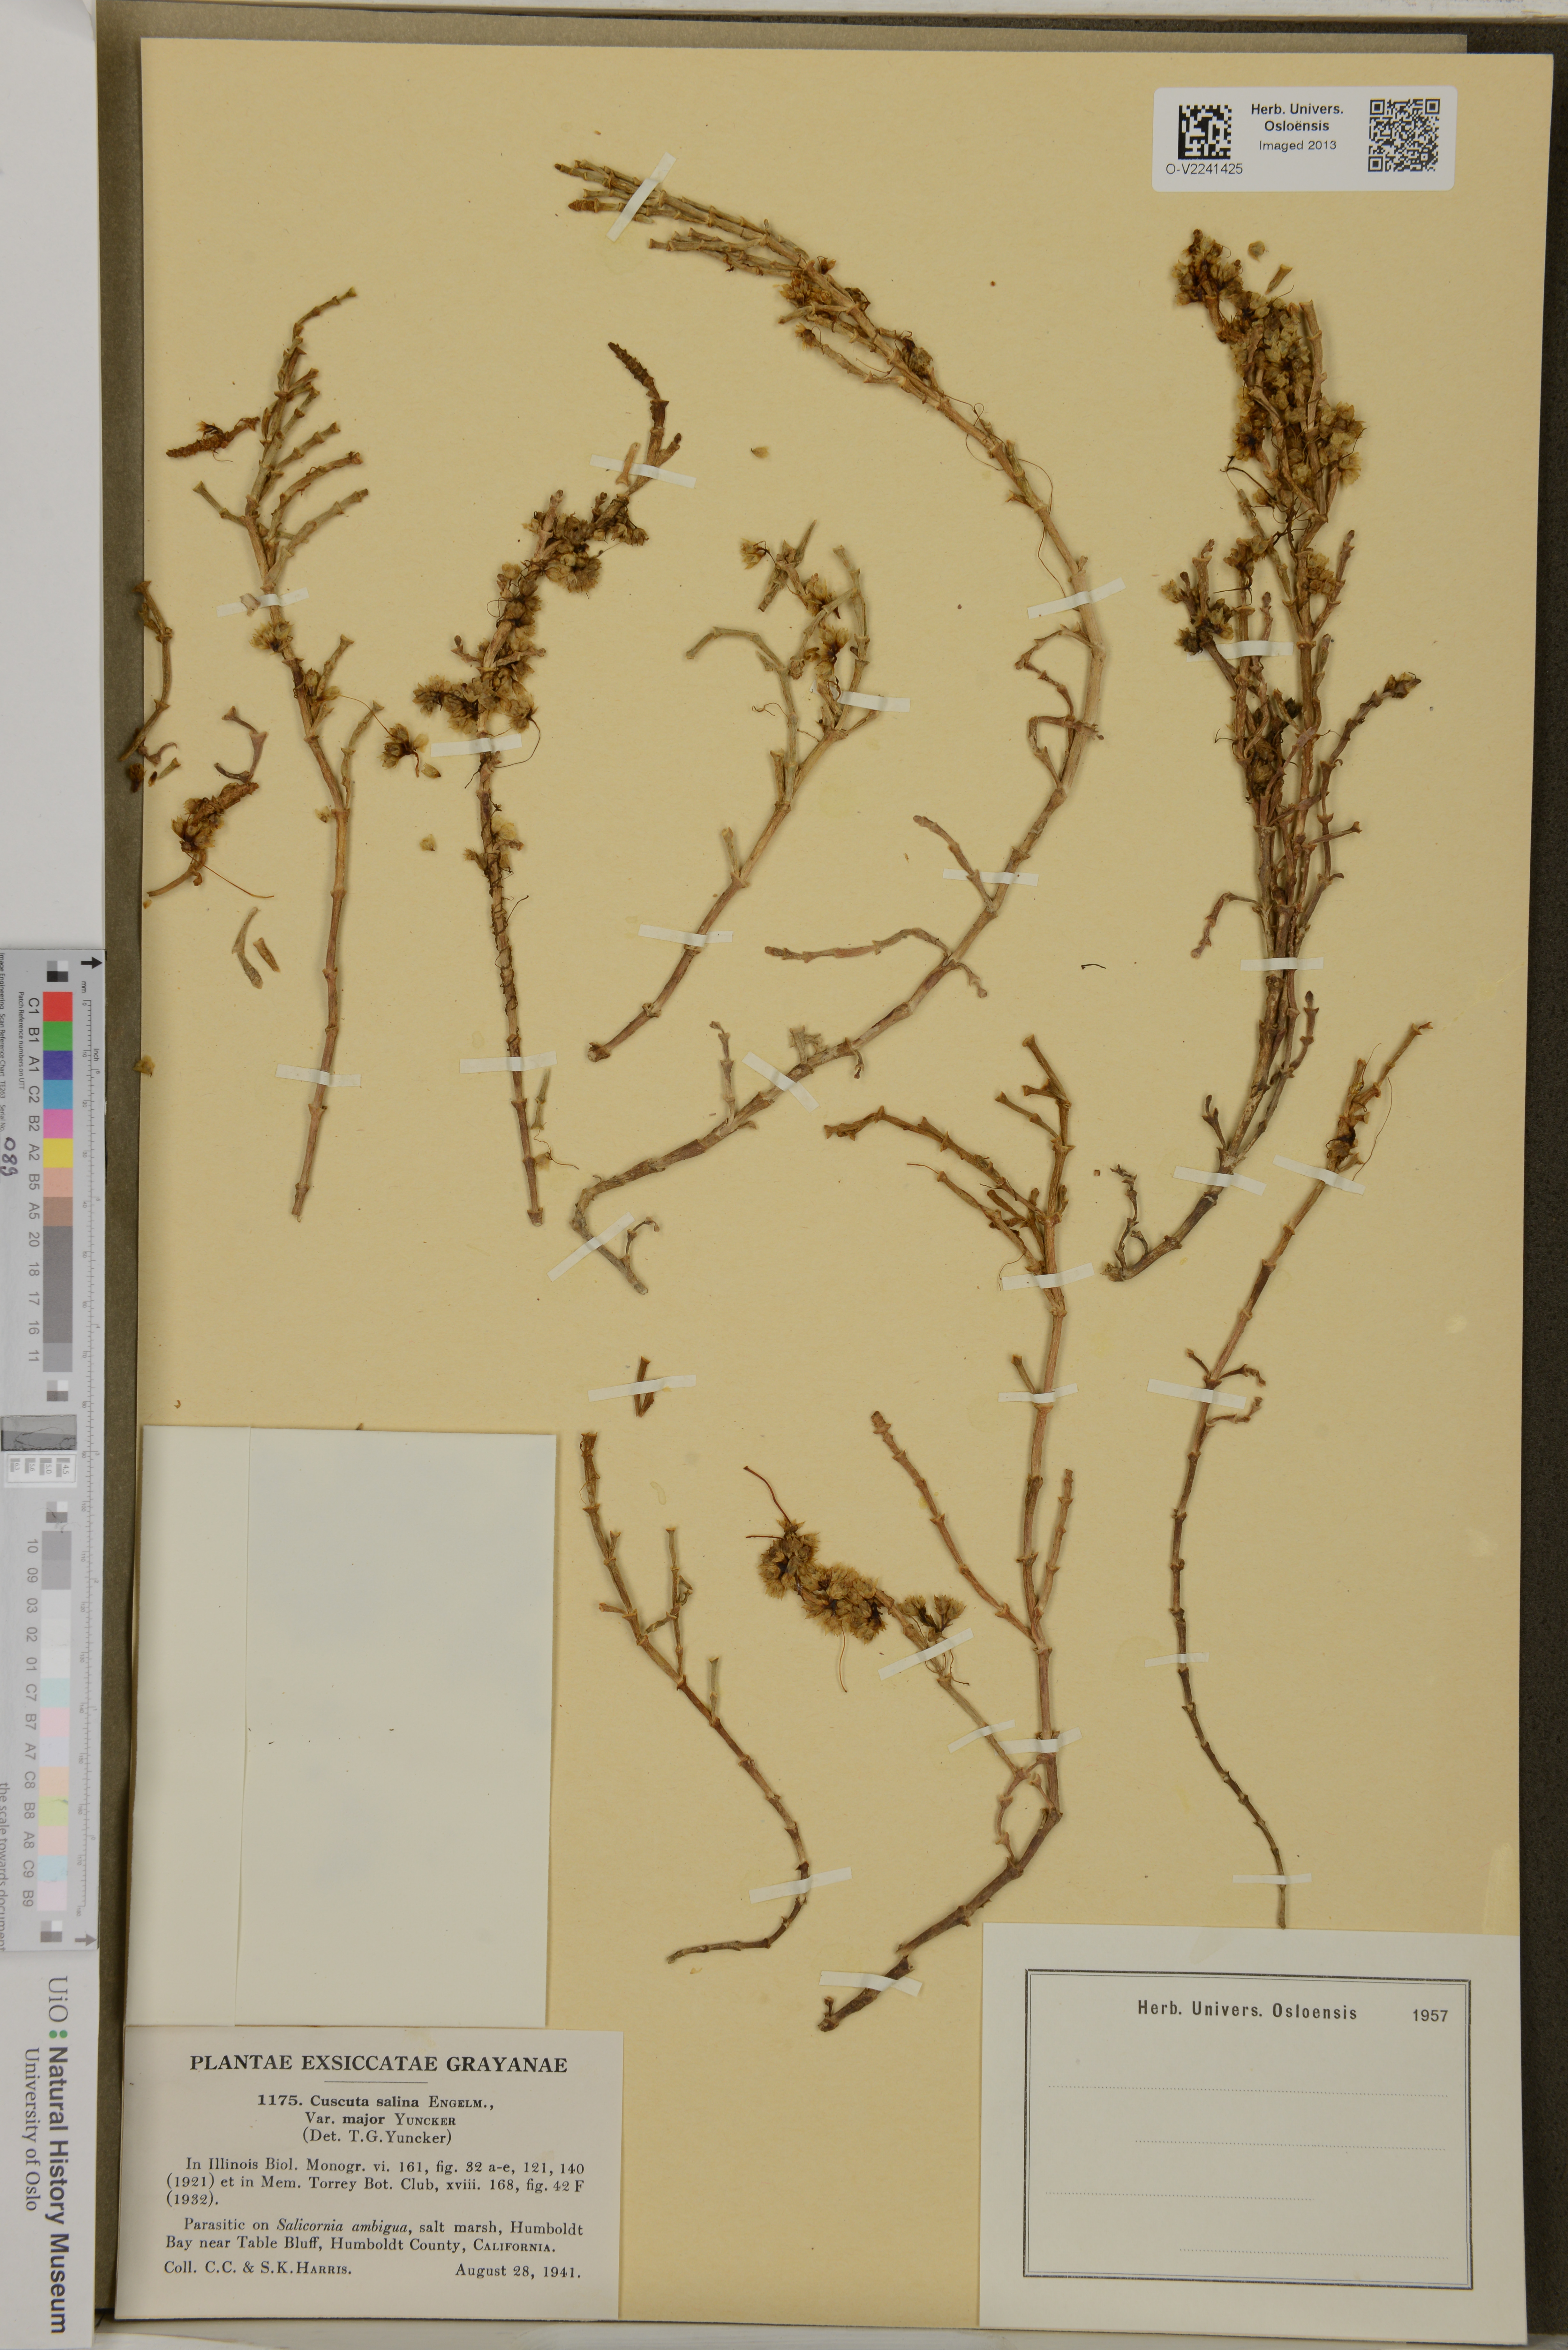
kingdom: Plantae
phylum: Tracheophyta
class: Magnoliopsida
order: Solanales
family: Convolvulaceae
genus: Cuscuta
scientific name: Cuscuta salina
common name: Goldenthread
